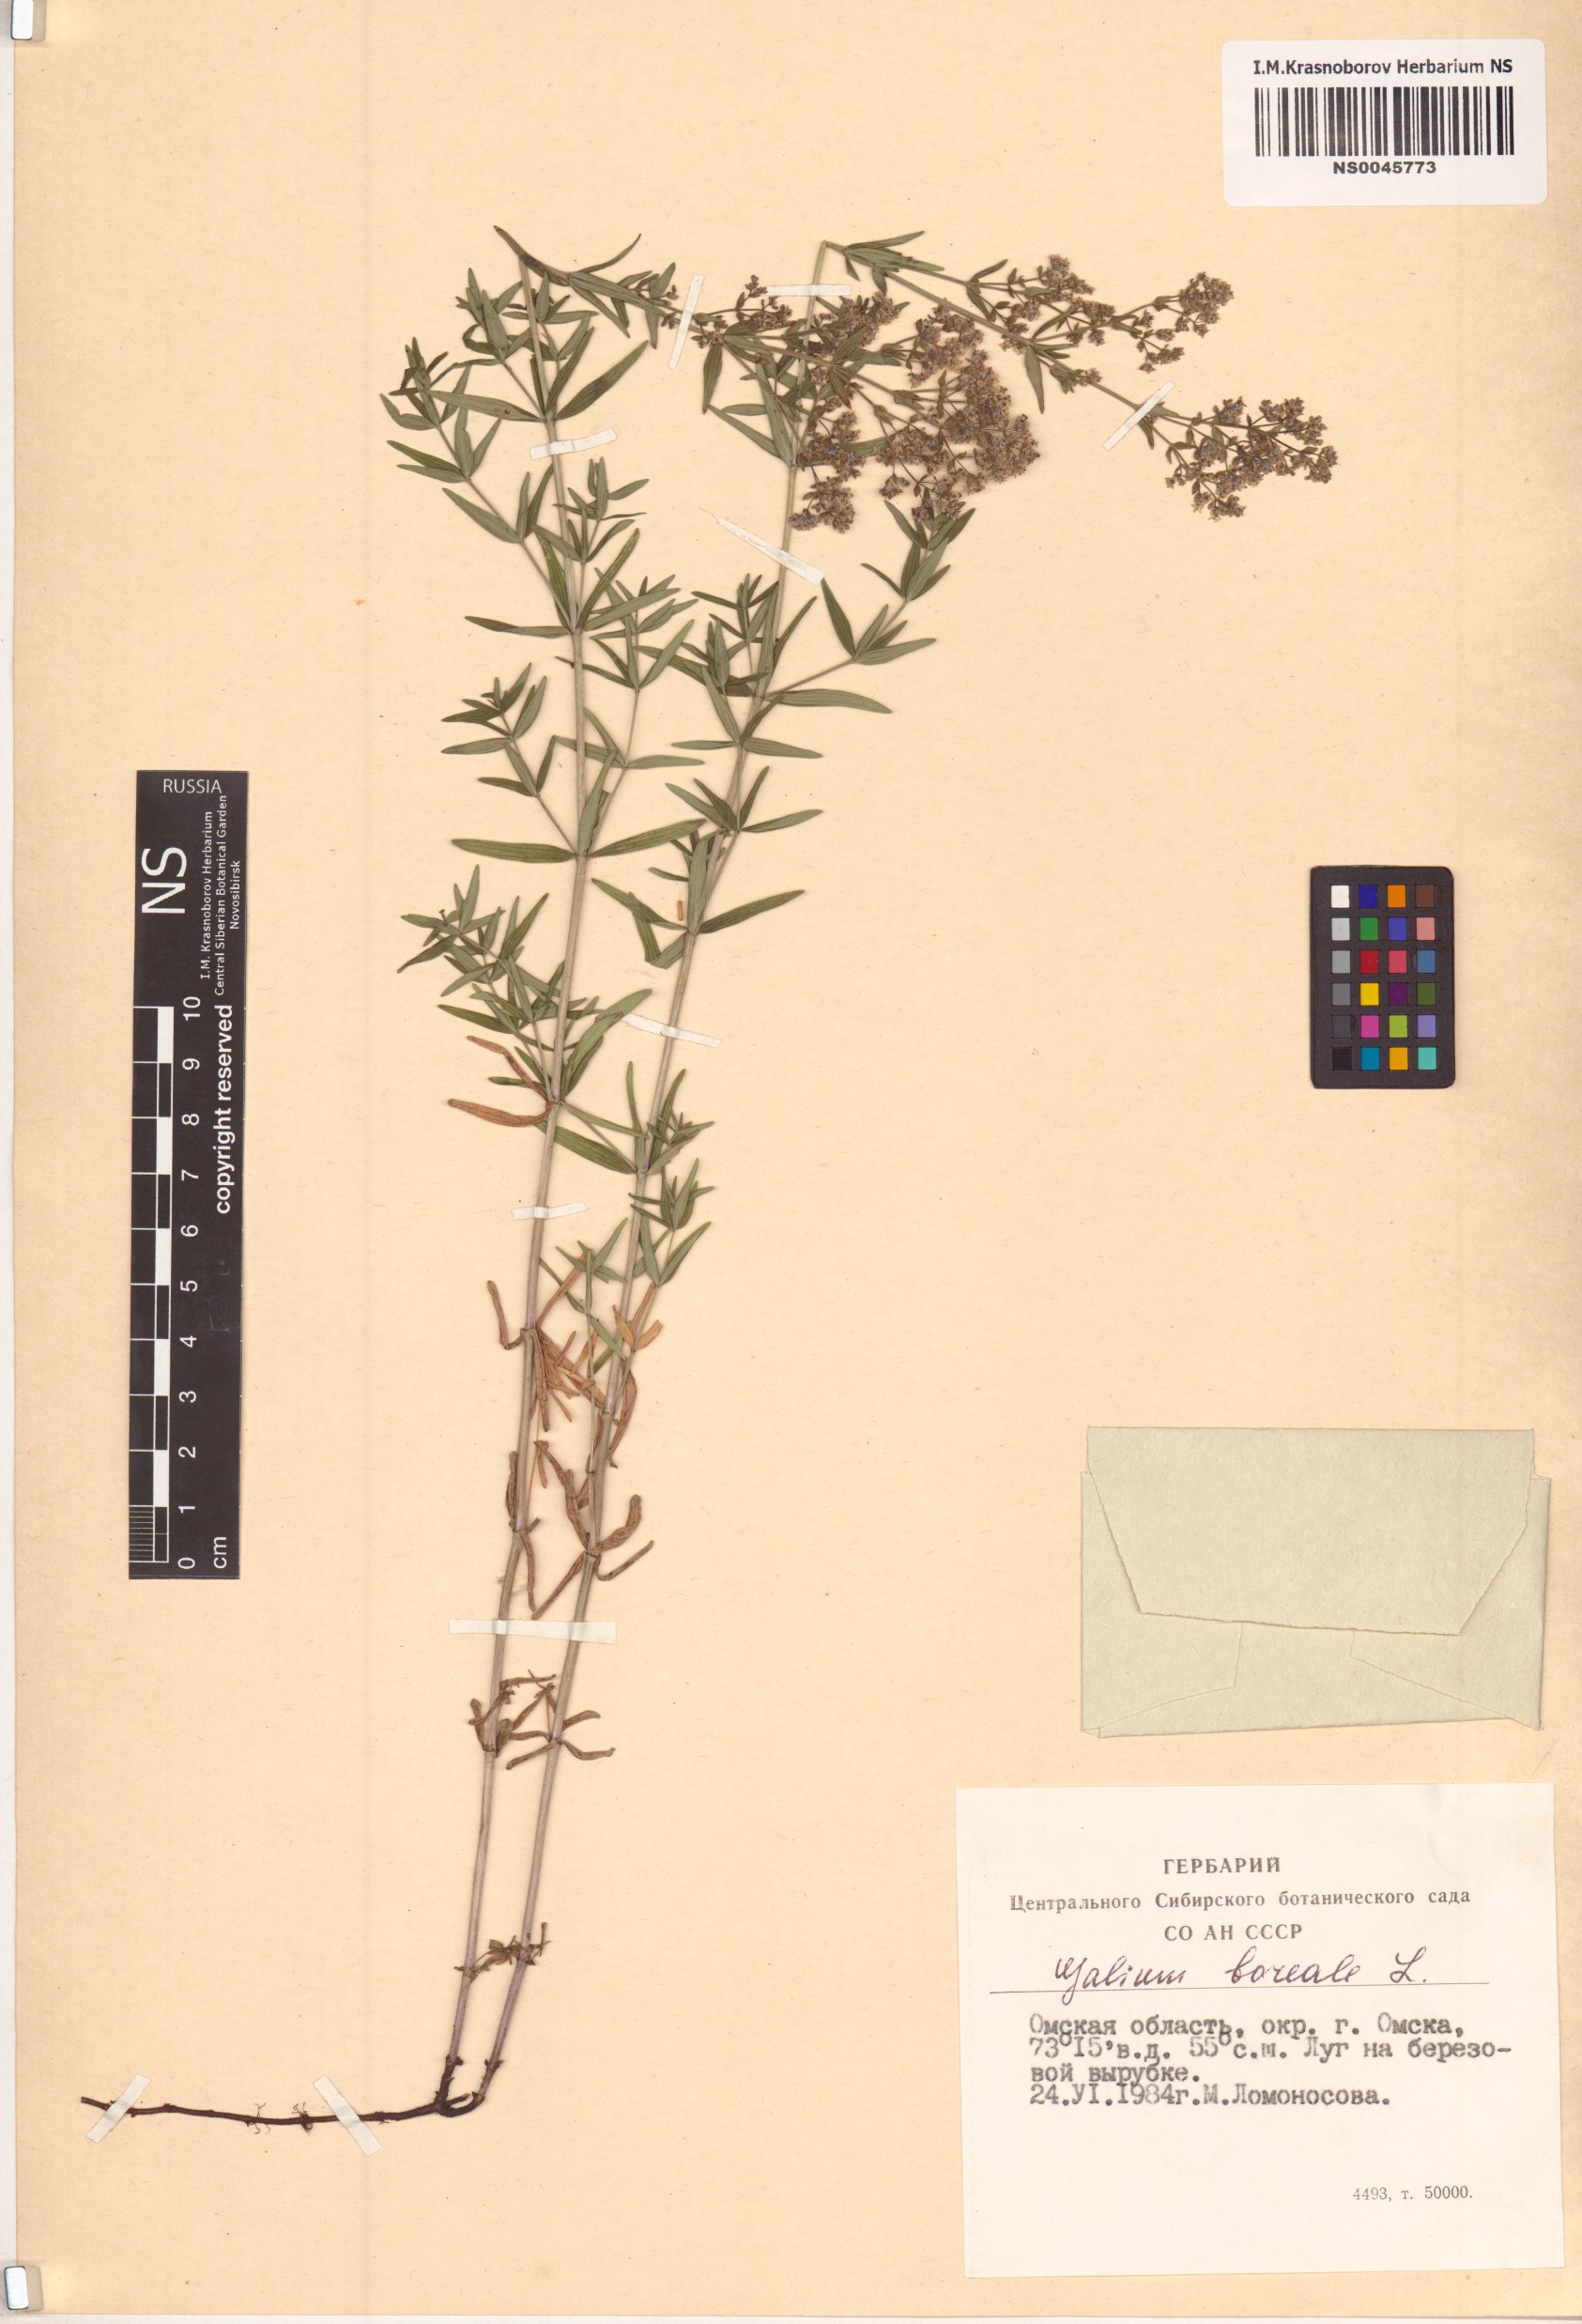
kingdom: Plantae
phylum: Tracheophyta
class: Magnoliopsida
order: Gentianales
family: Rubiaceae
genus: Galium
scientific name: Galium boreale
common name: Northern bedstraw
